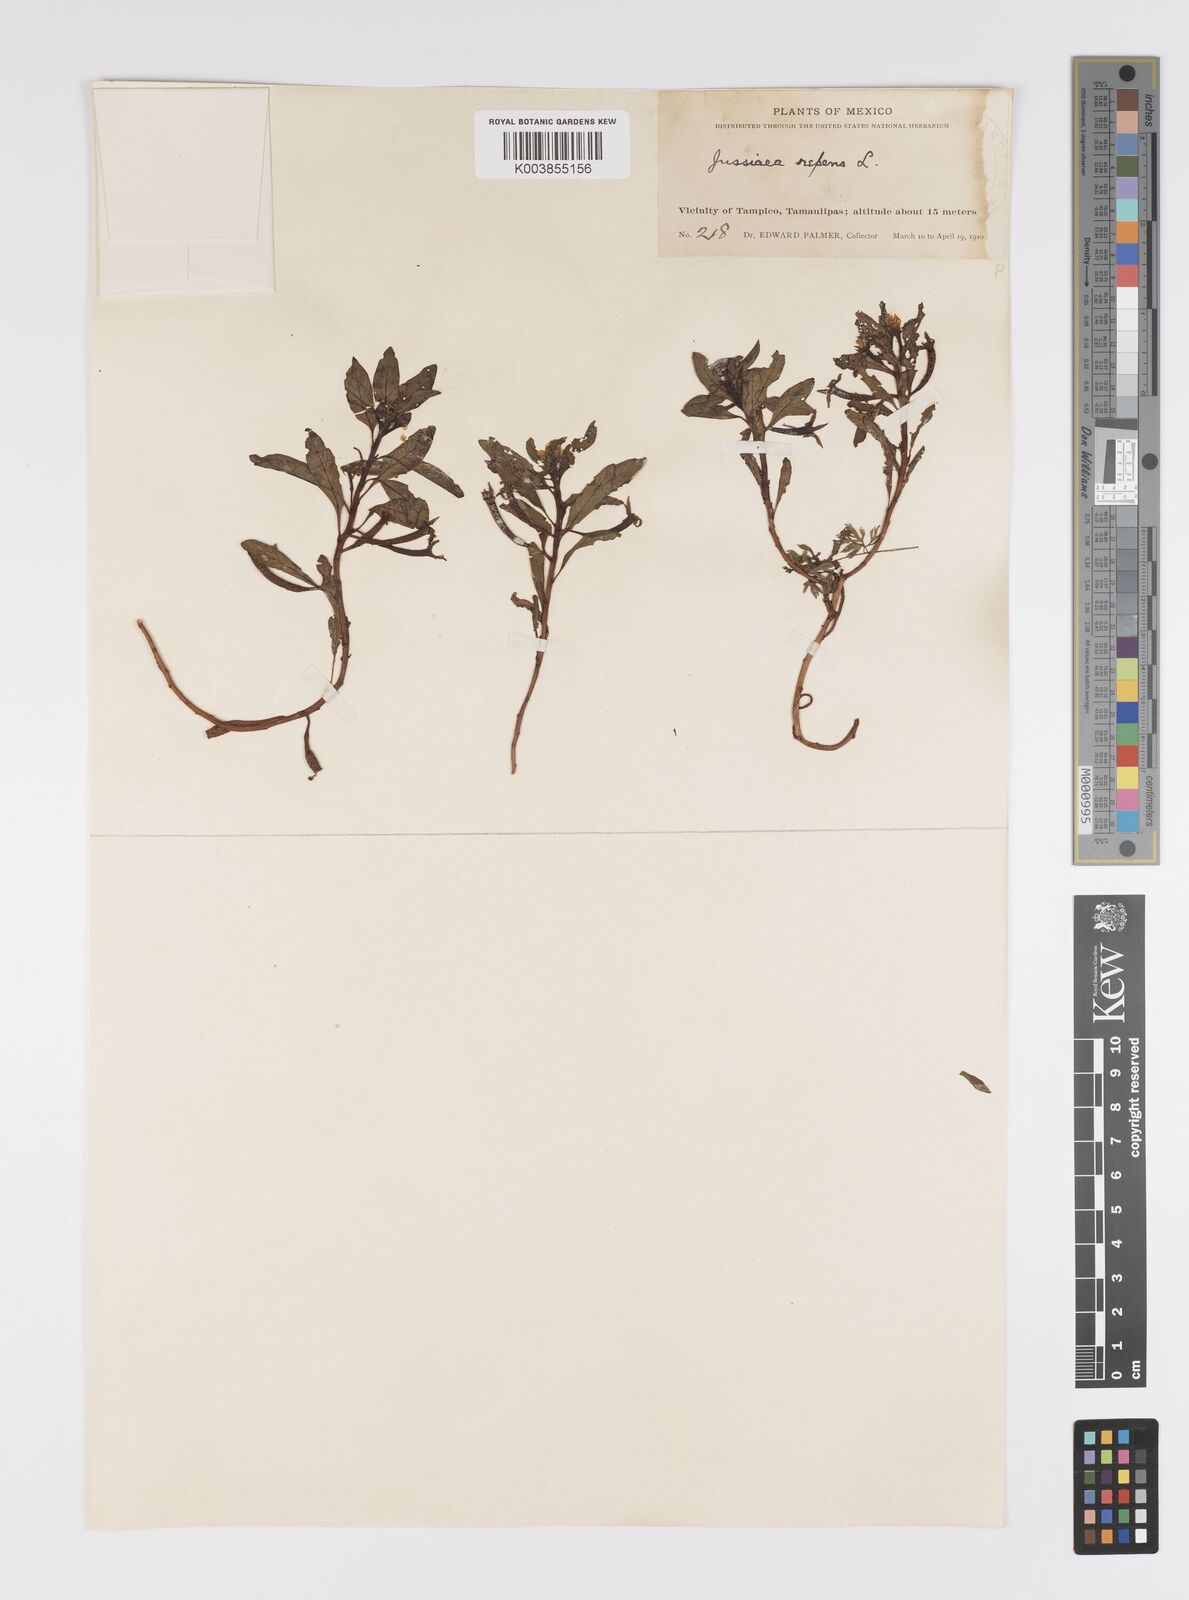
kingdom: Plantae
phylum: Tracheophyta
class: Magnoliopsida
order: Myrtales
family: Onagraceae
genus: Ludwigia
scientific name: Ludwigia adscendens
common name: Creeping water primrose
